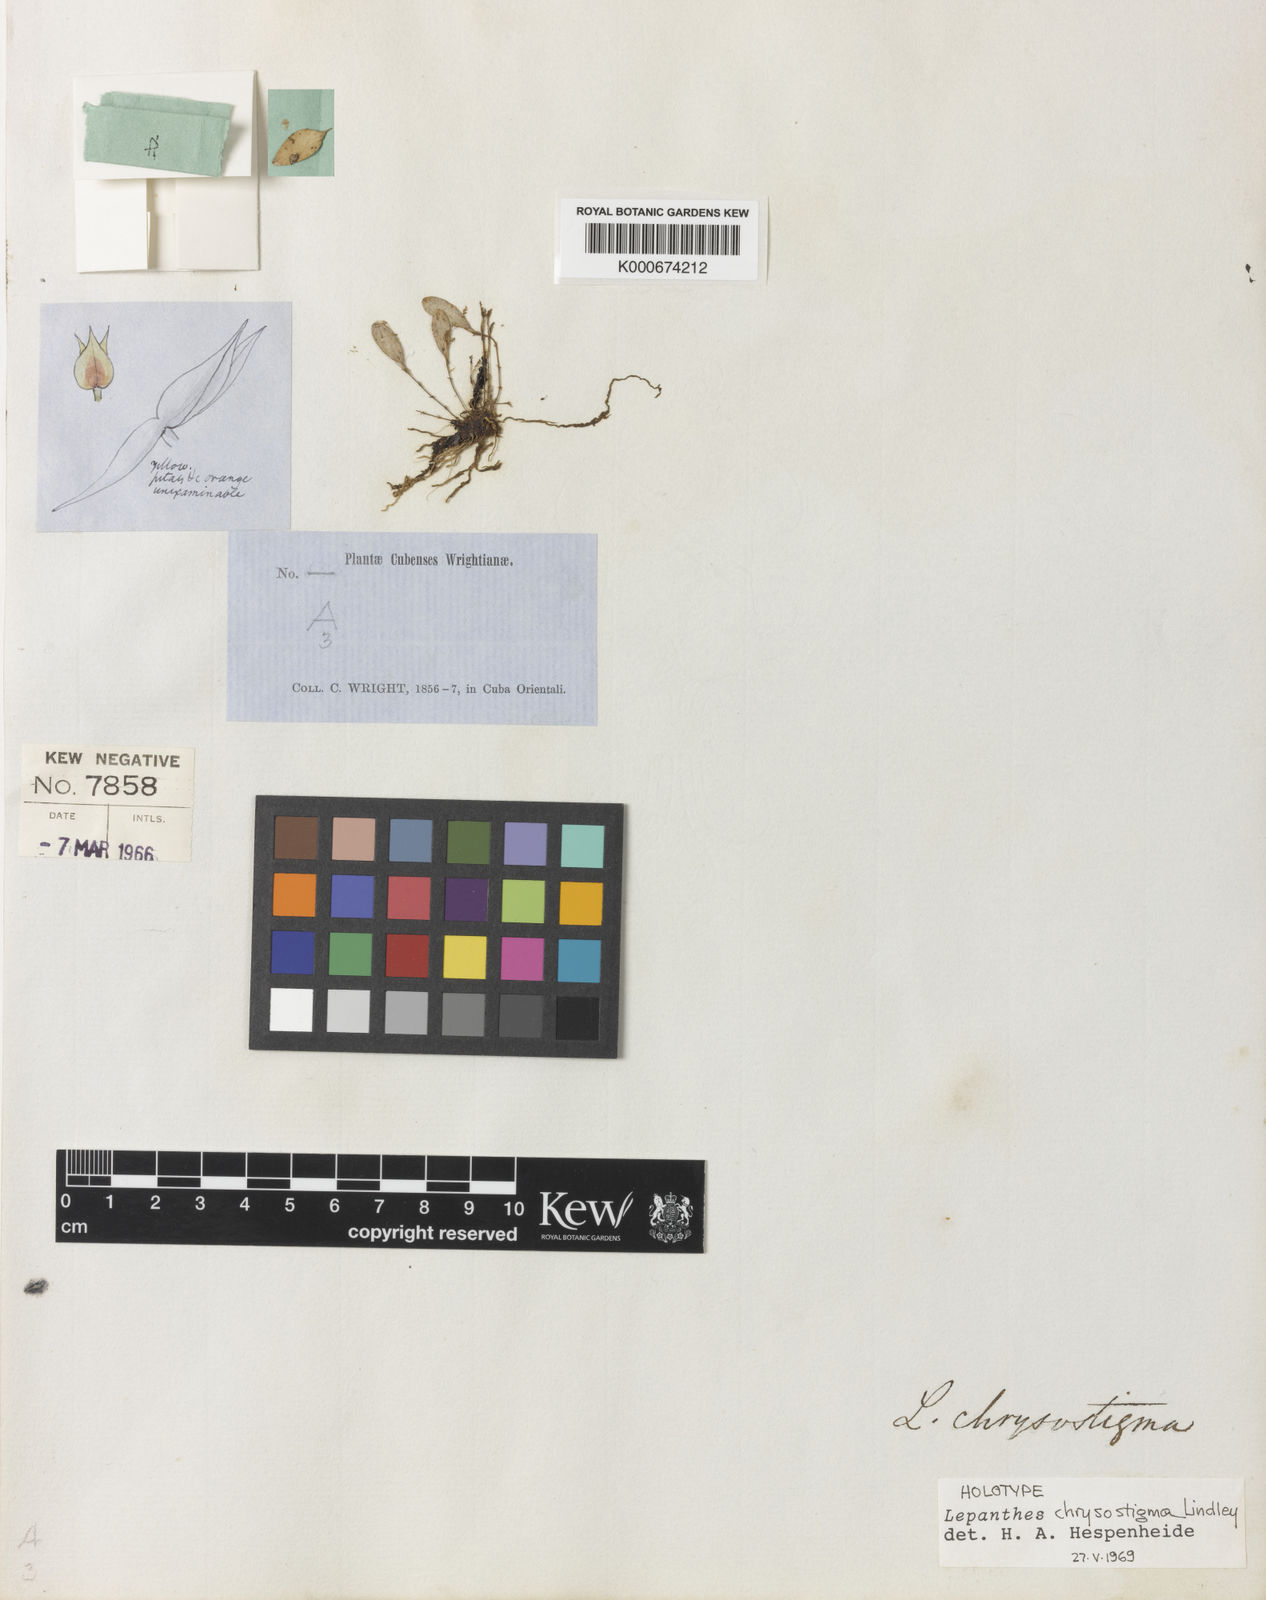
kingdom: Plantae
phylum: Tracheophyta
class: Liliopsida
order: Asparagales
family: Orchidaceae
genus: Lepanthes
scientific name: Lepanthes chrysostigma
